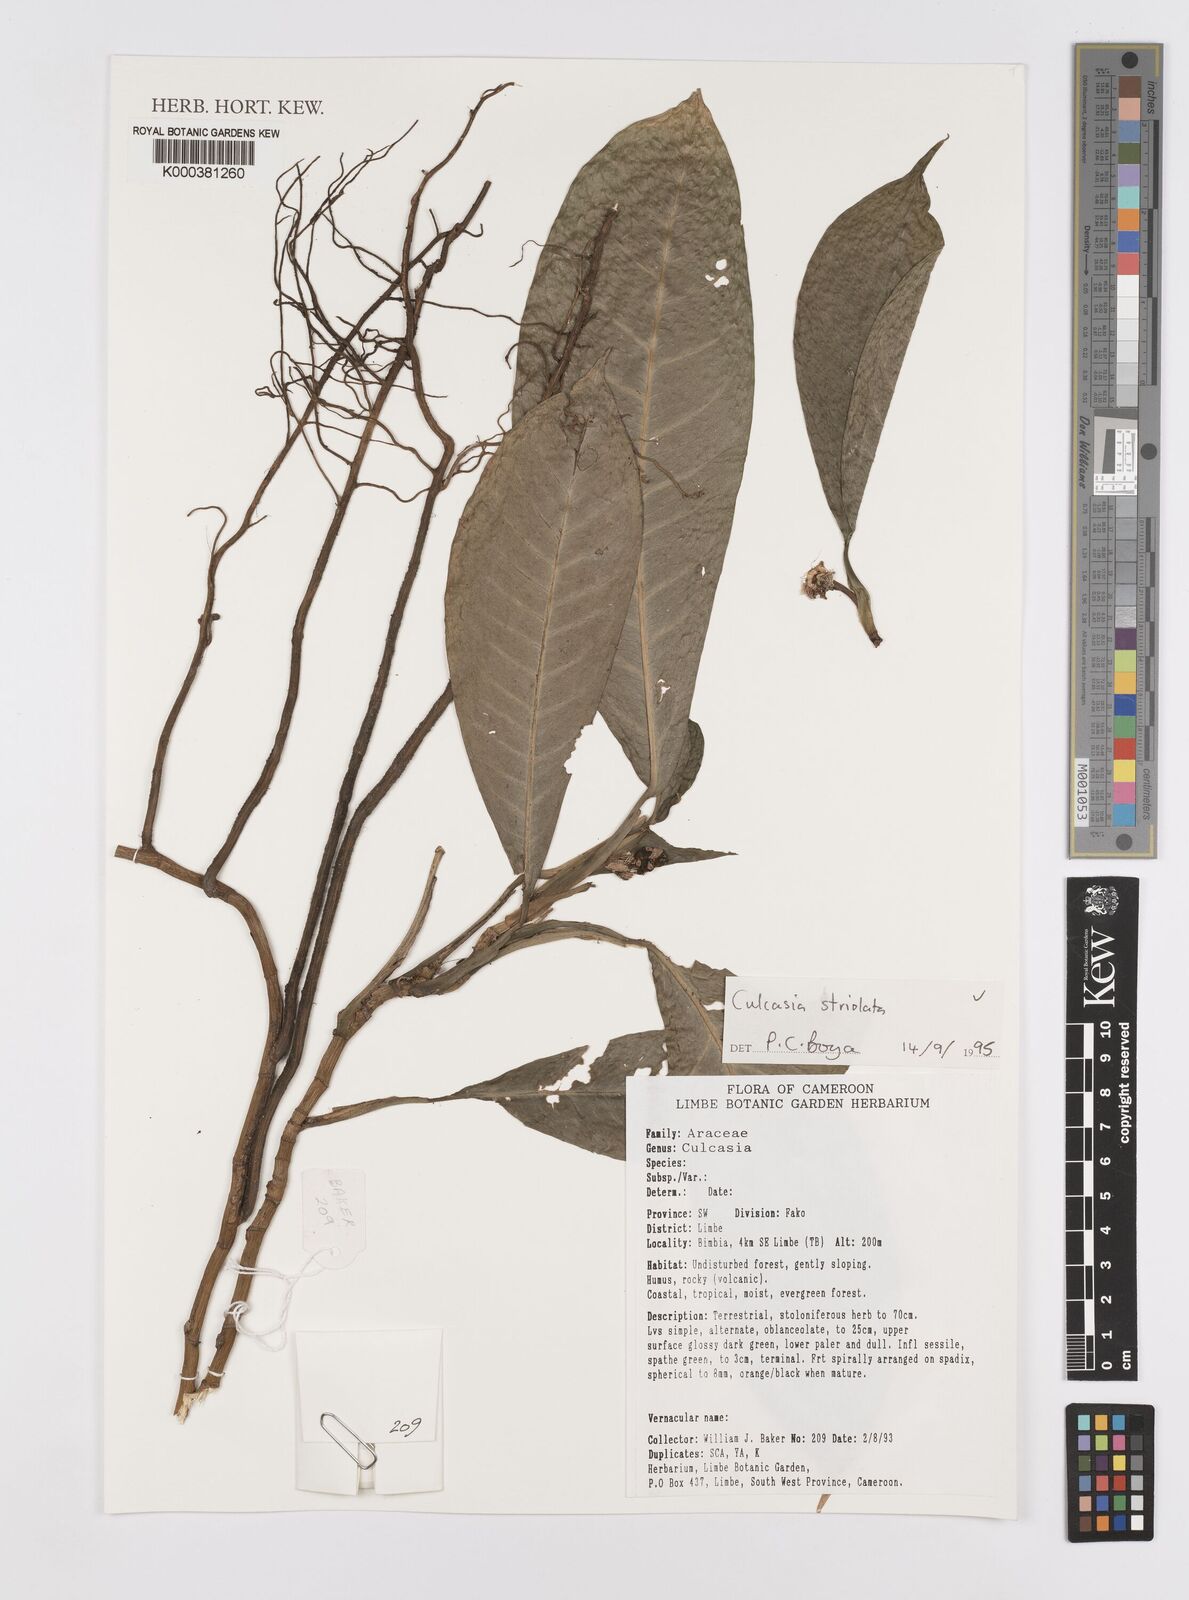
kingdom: Plantae
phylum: Tracheophyta
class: Liliopsida
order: Alismatales
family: Araceae
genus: Culcasia
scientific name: Culcasia striolata
